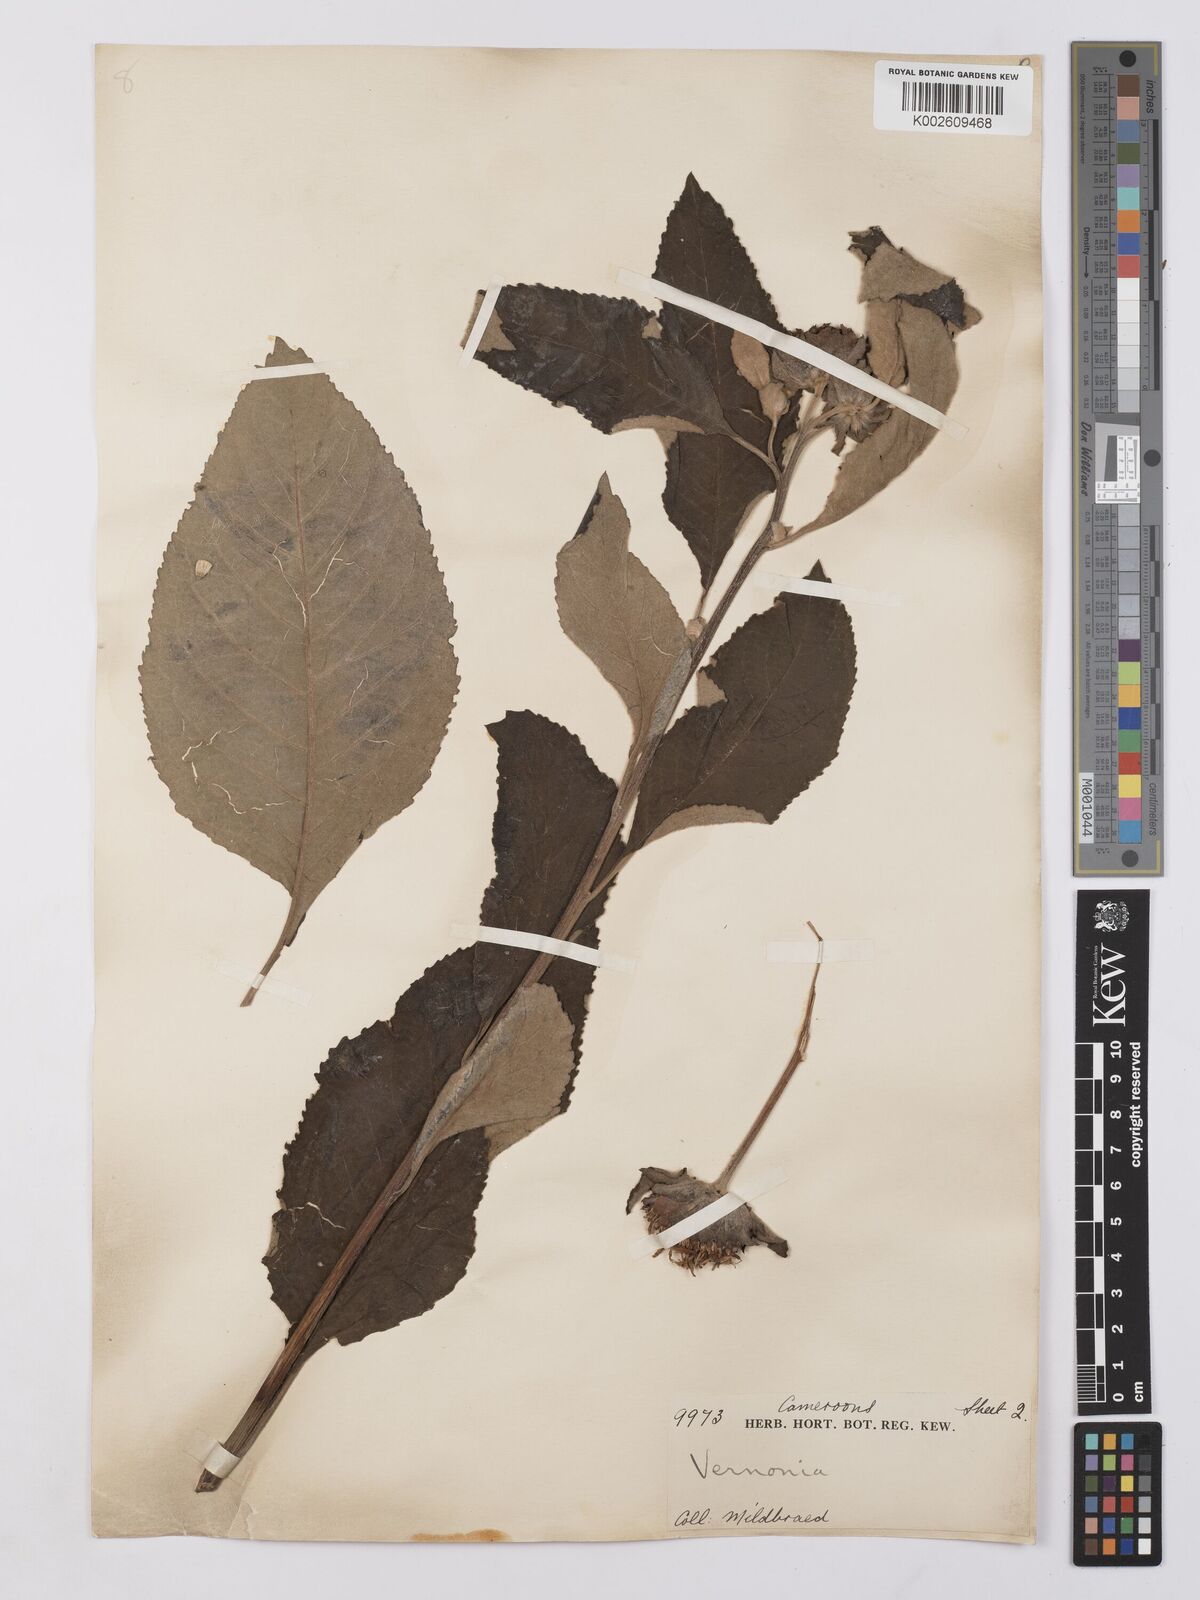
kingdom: Plantae
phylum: Tracheophyta
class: Magnoliopsida
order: Asterales
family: Asteraceae
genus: Vernonia
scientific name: Vernonia
